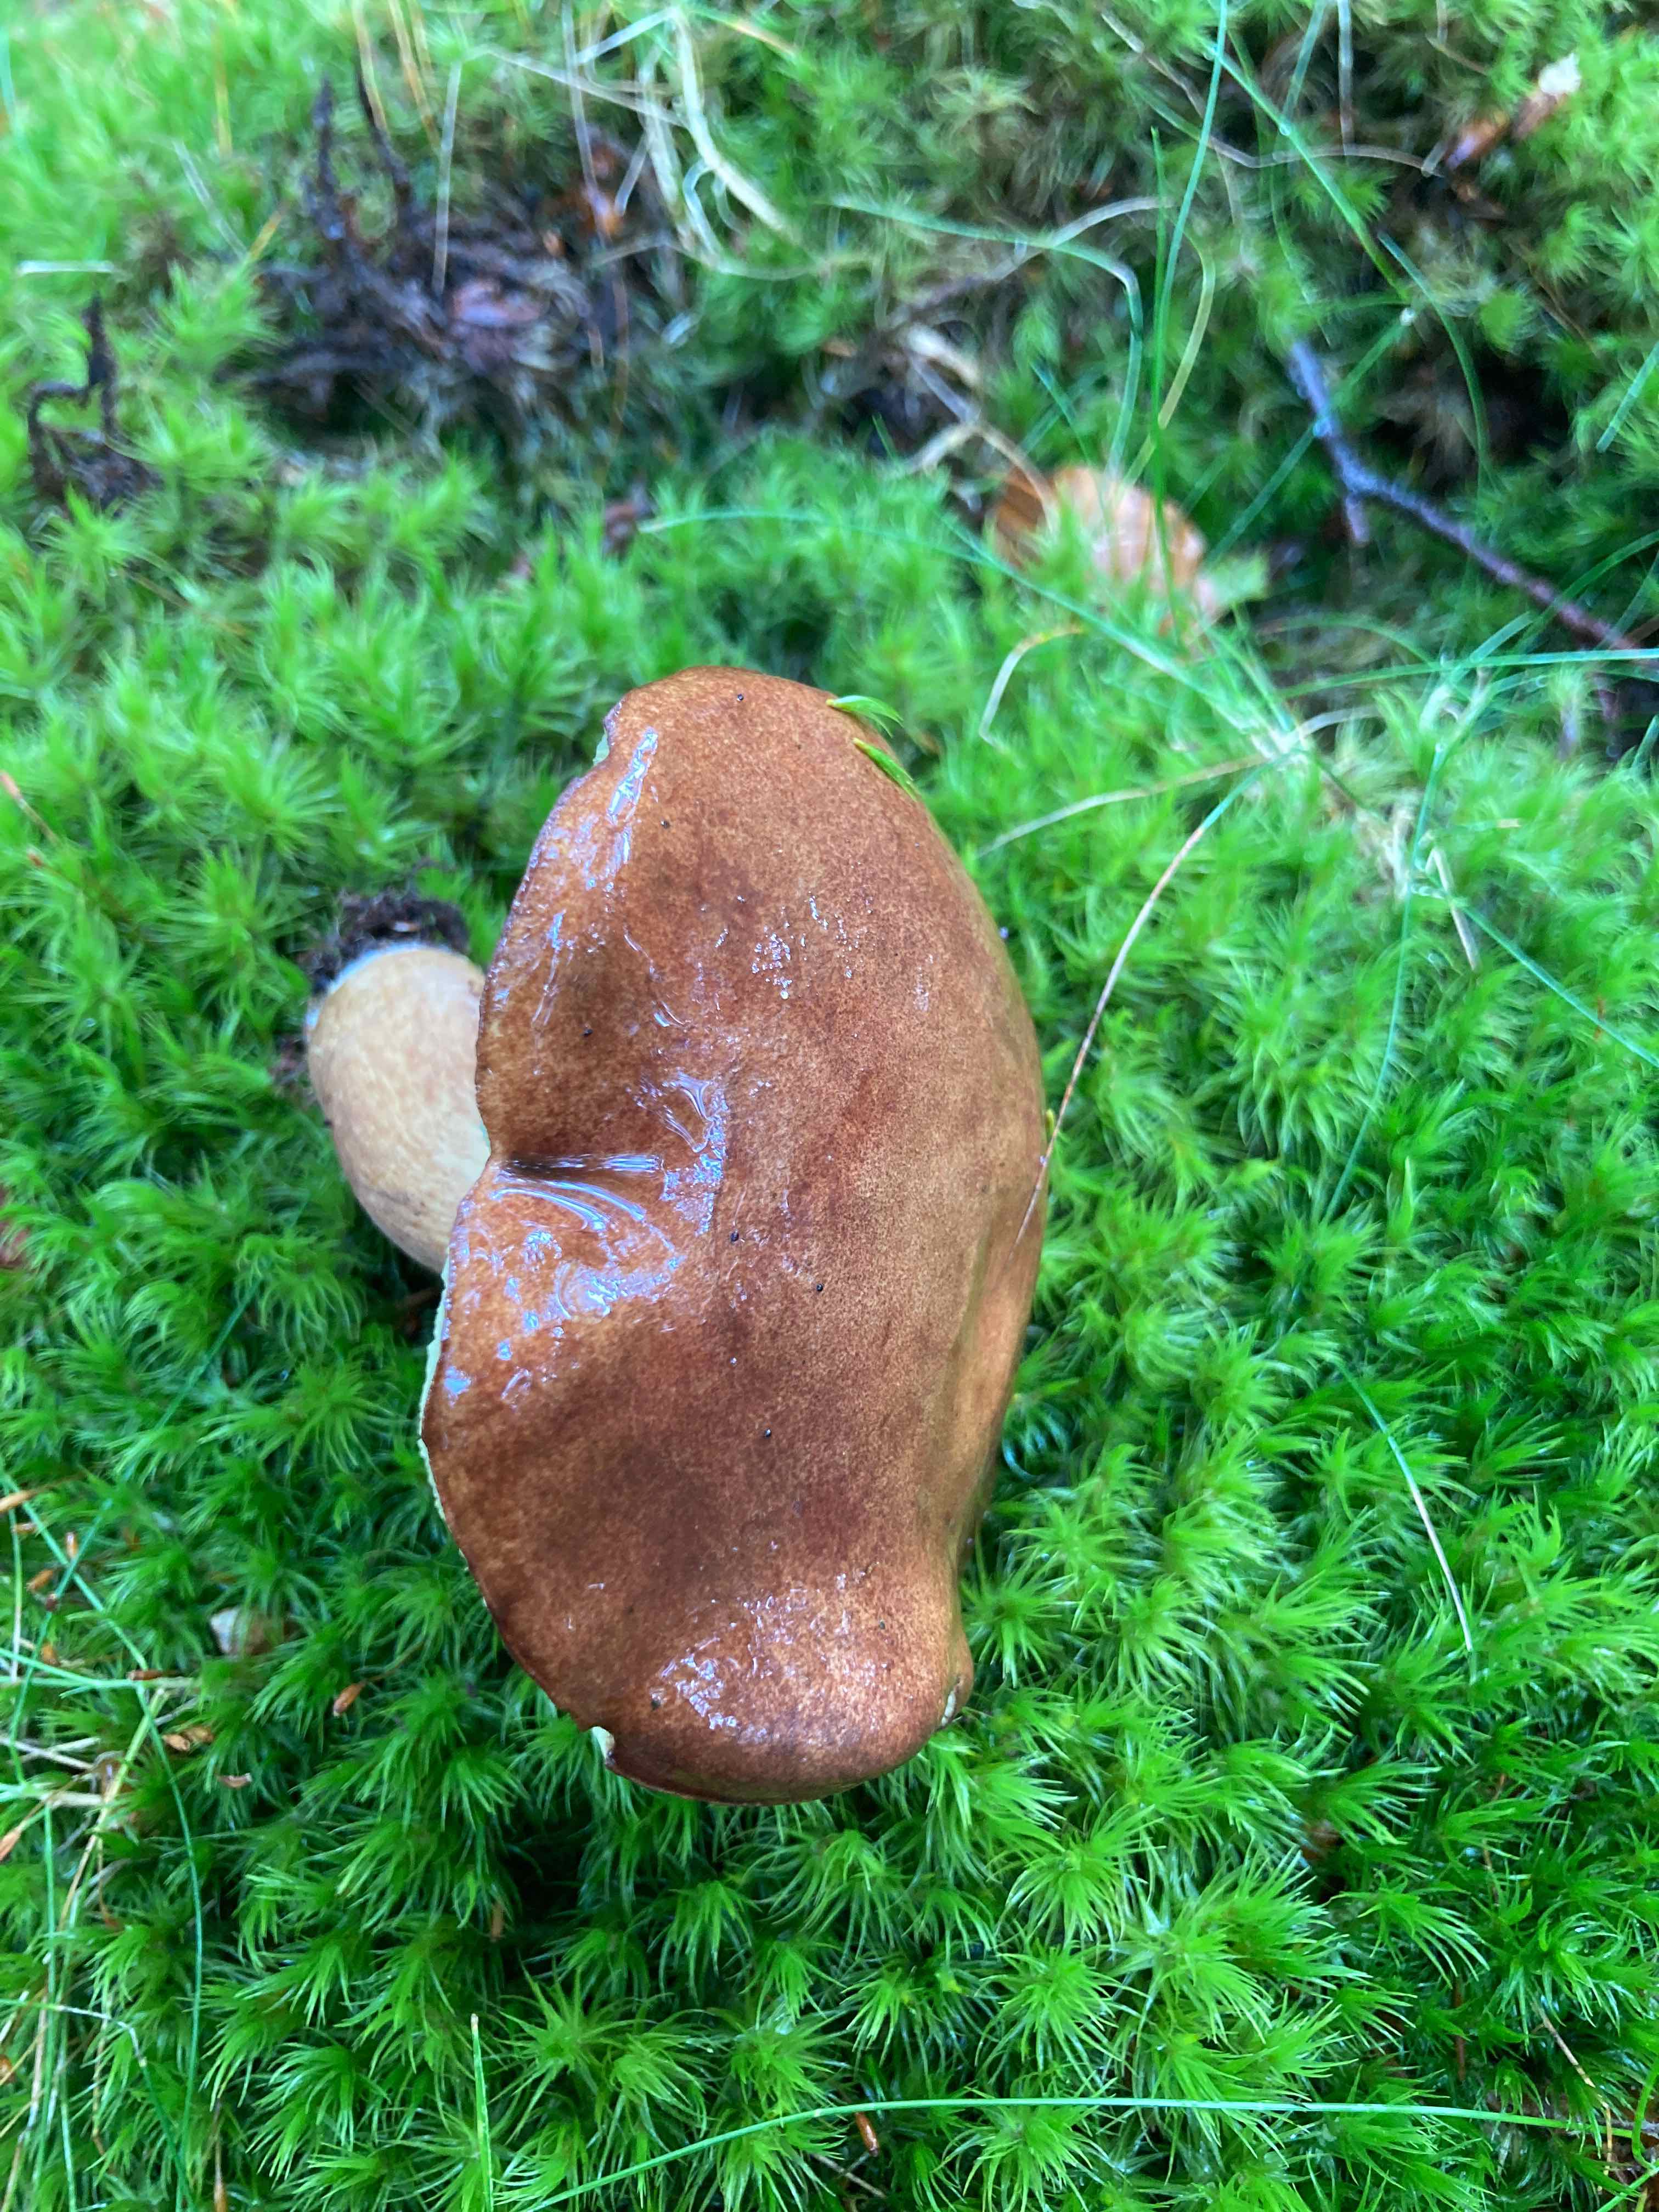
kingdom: Fungi
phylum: Basidiomycota
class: Agaricomycetes
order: Boletales
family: Boletaceae
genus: Imleria
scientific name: Imleria badia
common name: brunstokket rørhat
